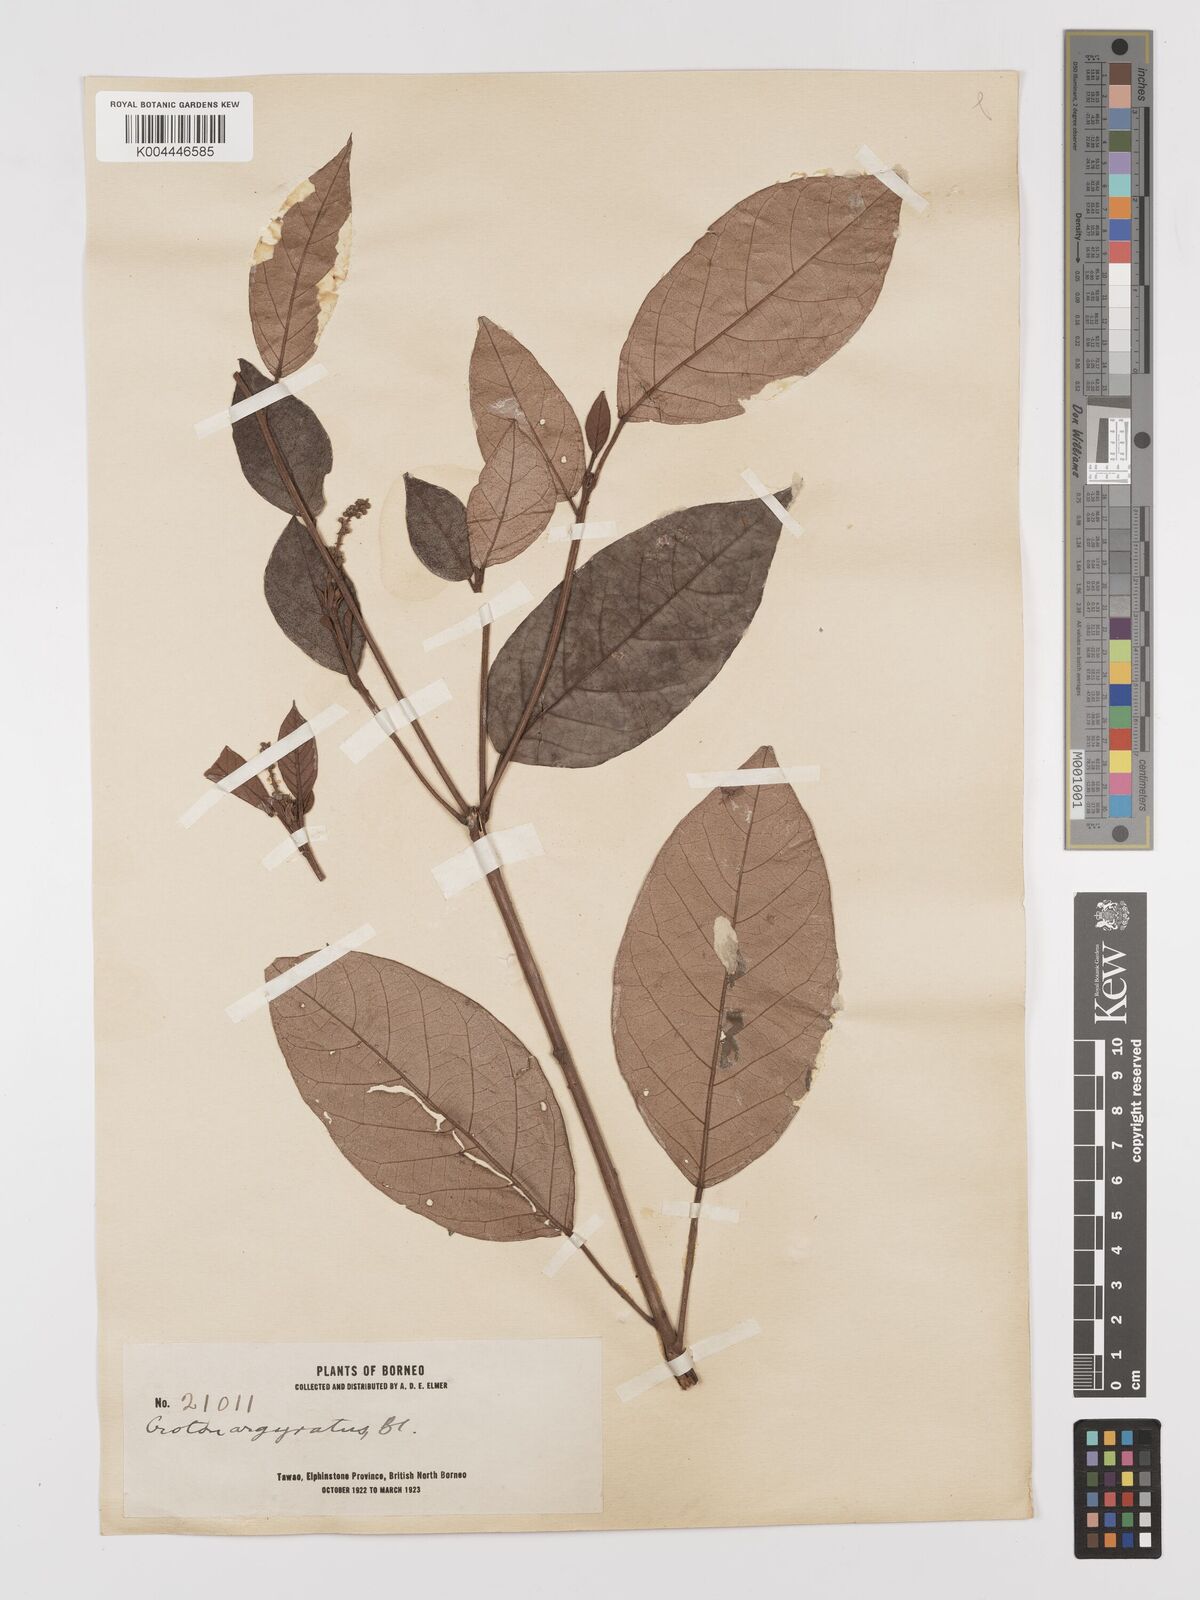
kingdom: Plantae
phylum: Tracheophyta
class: Magnoliopsida
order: Malpighiales
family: Euphorbiaceae
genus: Croton
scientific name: Croton argyratus
